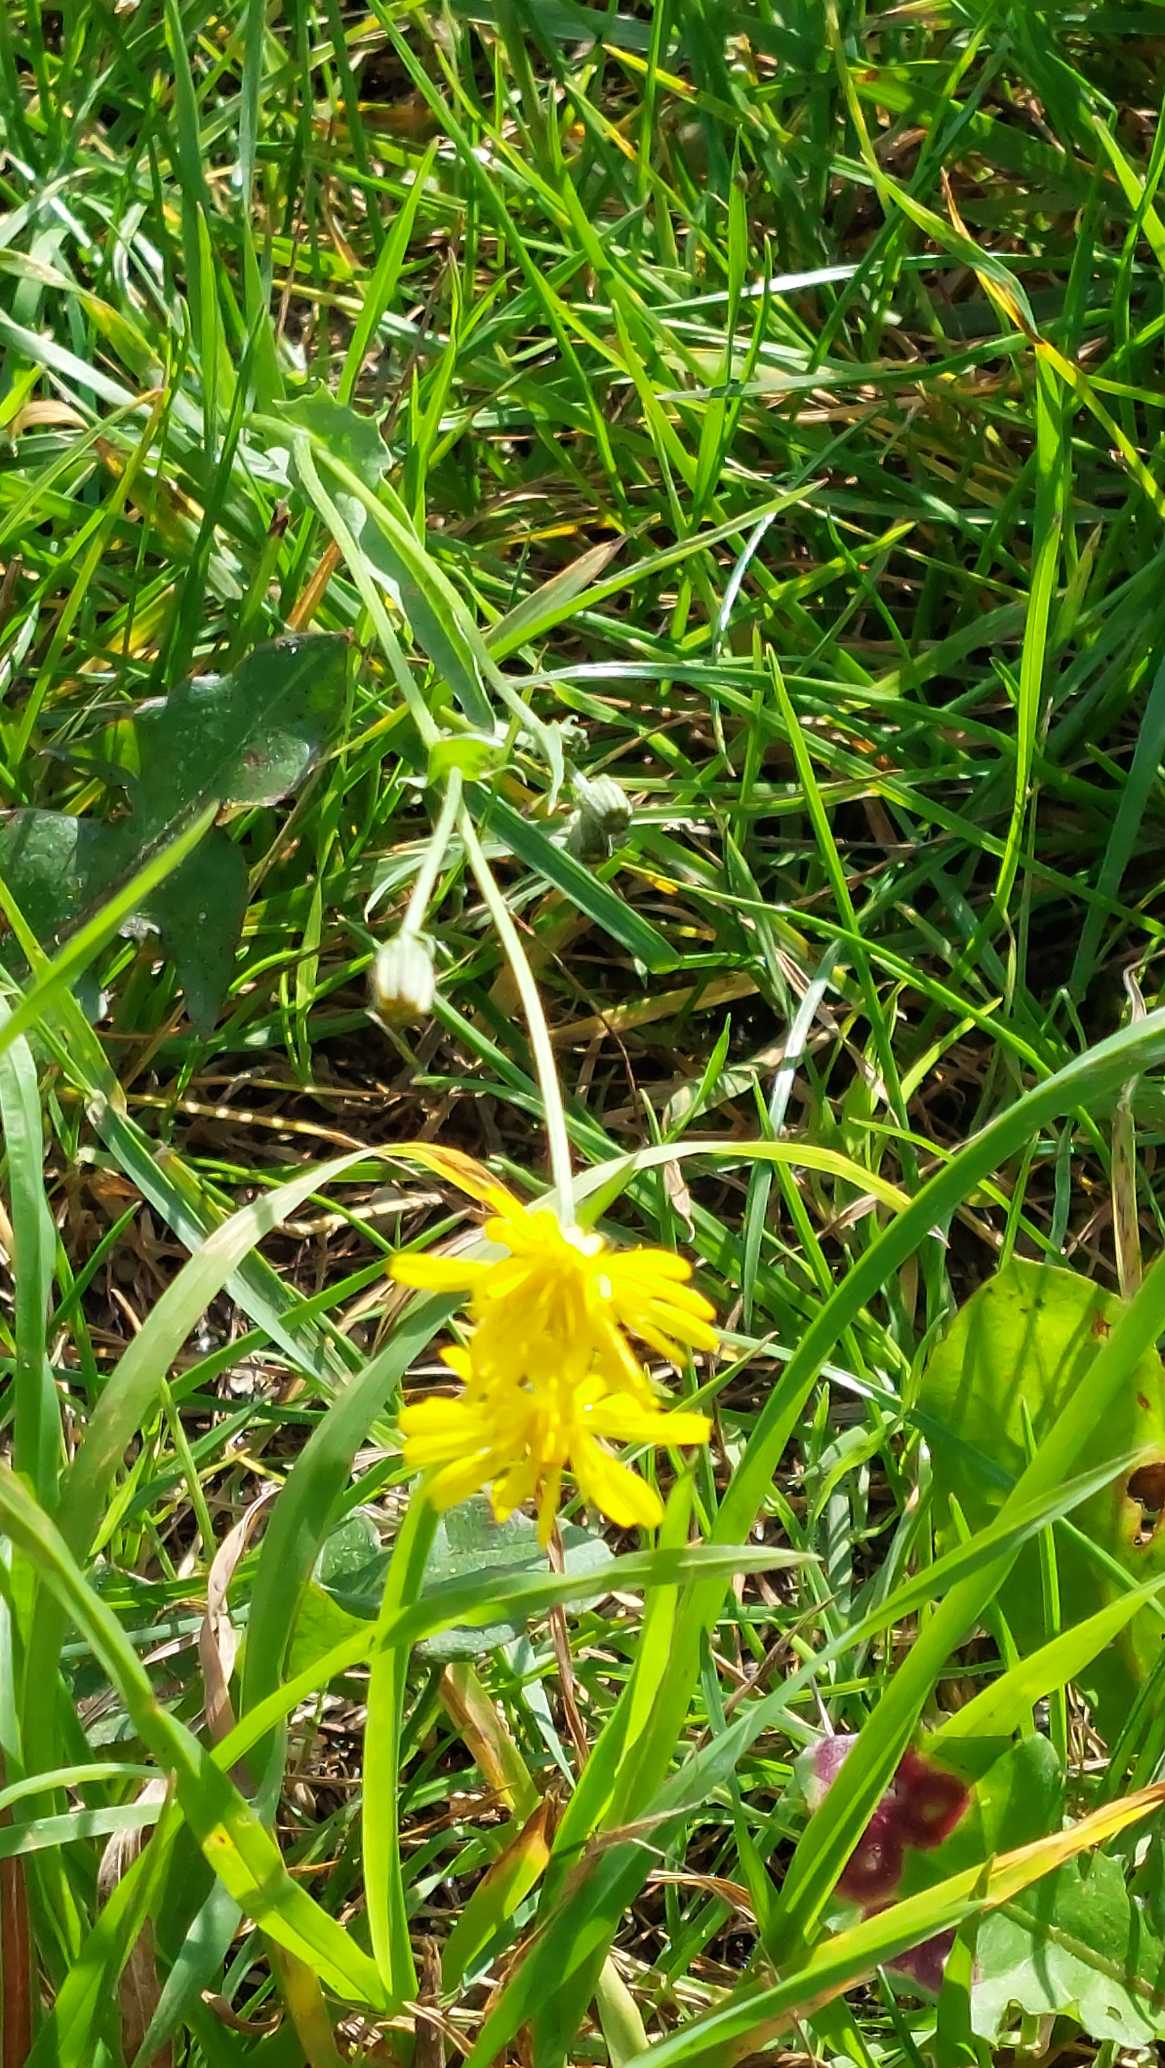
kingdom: Plantae
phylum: Tracheophyta
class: Magnoliopsida
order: Asterales
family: Asteraceae
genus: Crepis
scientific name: Crepis capillaris
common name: Grøn høgeskæg
